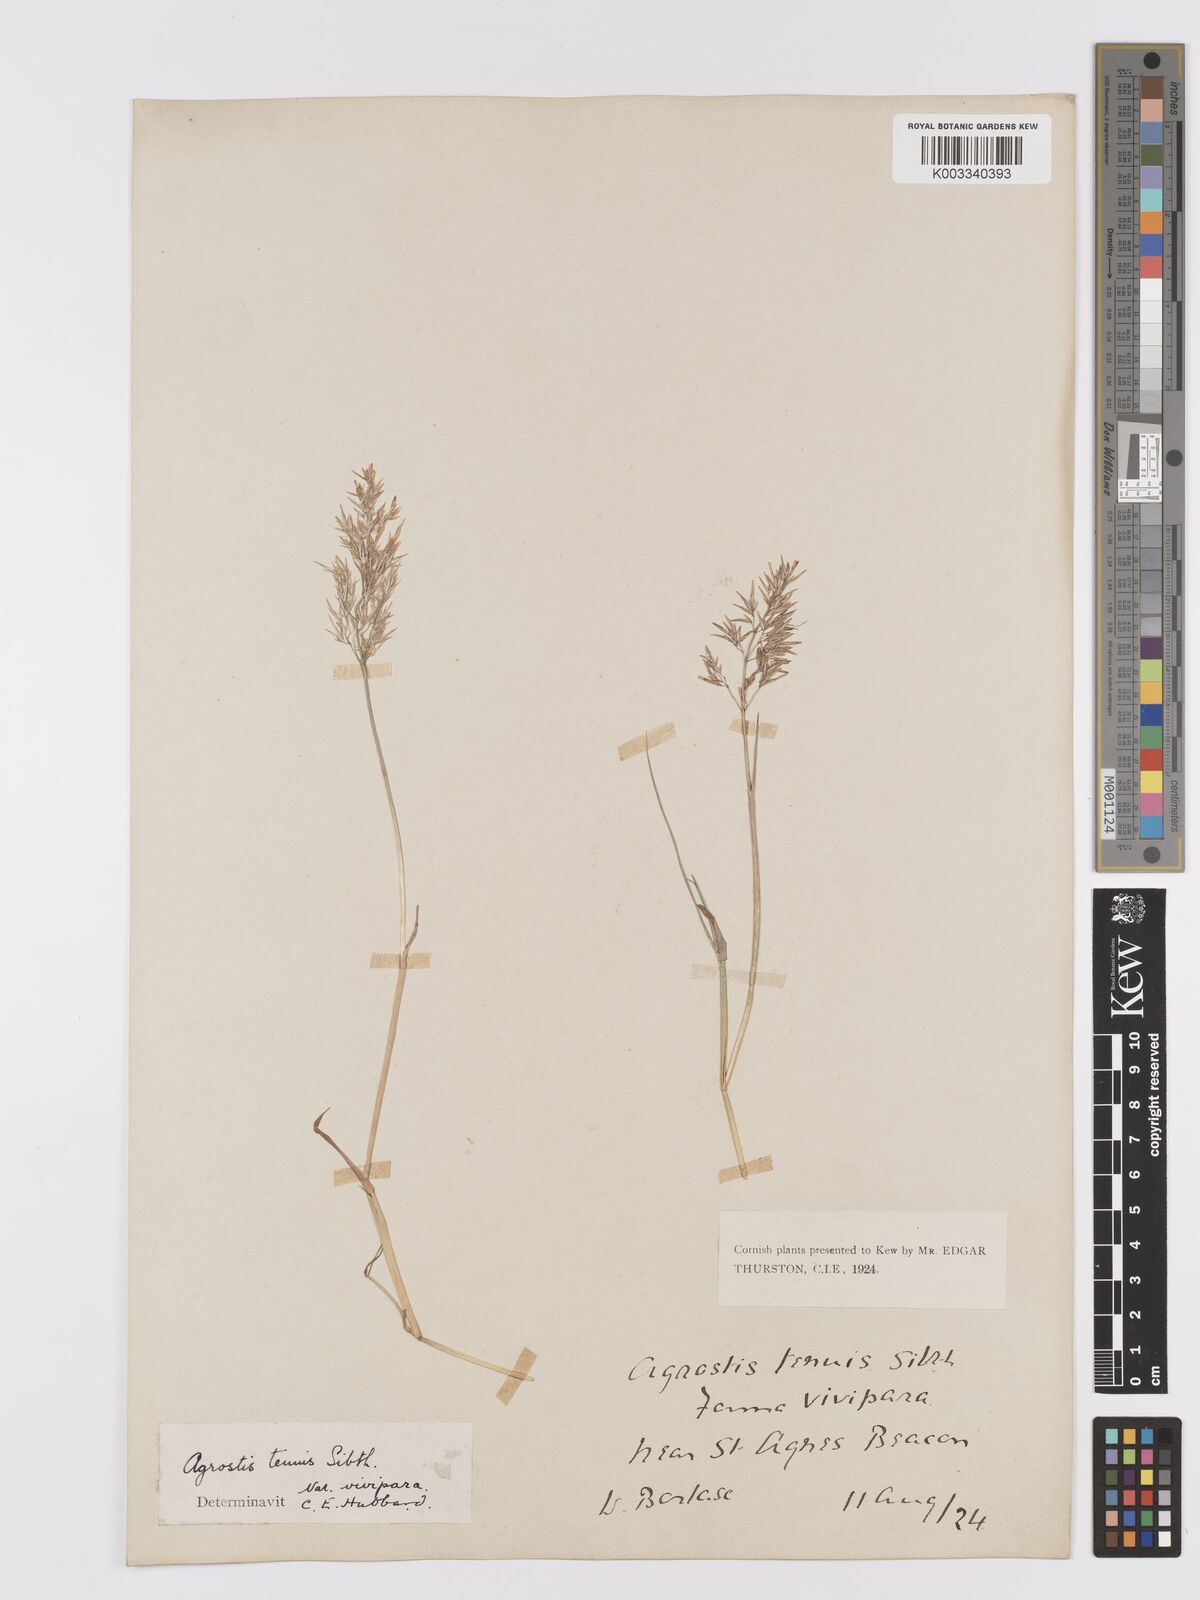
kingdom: Plantae
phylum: Tracheophyta
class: Liliopsida
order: Poales
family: Poaceae
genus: Agrostis
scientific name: Agrostis capillaris
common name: Colonial bentgrass
